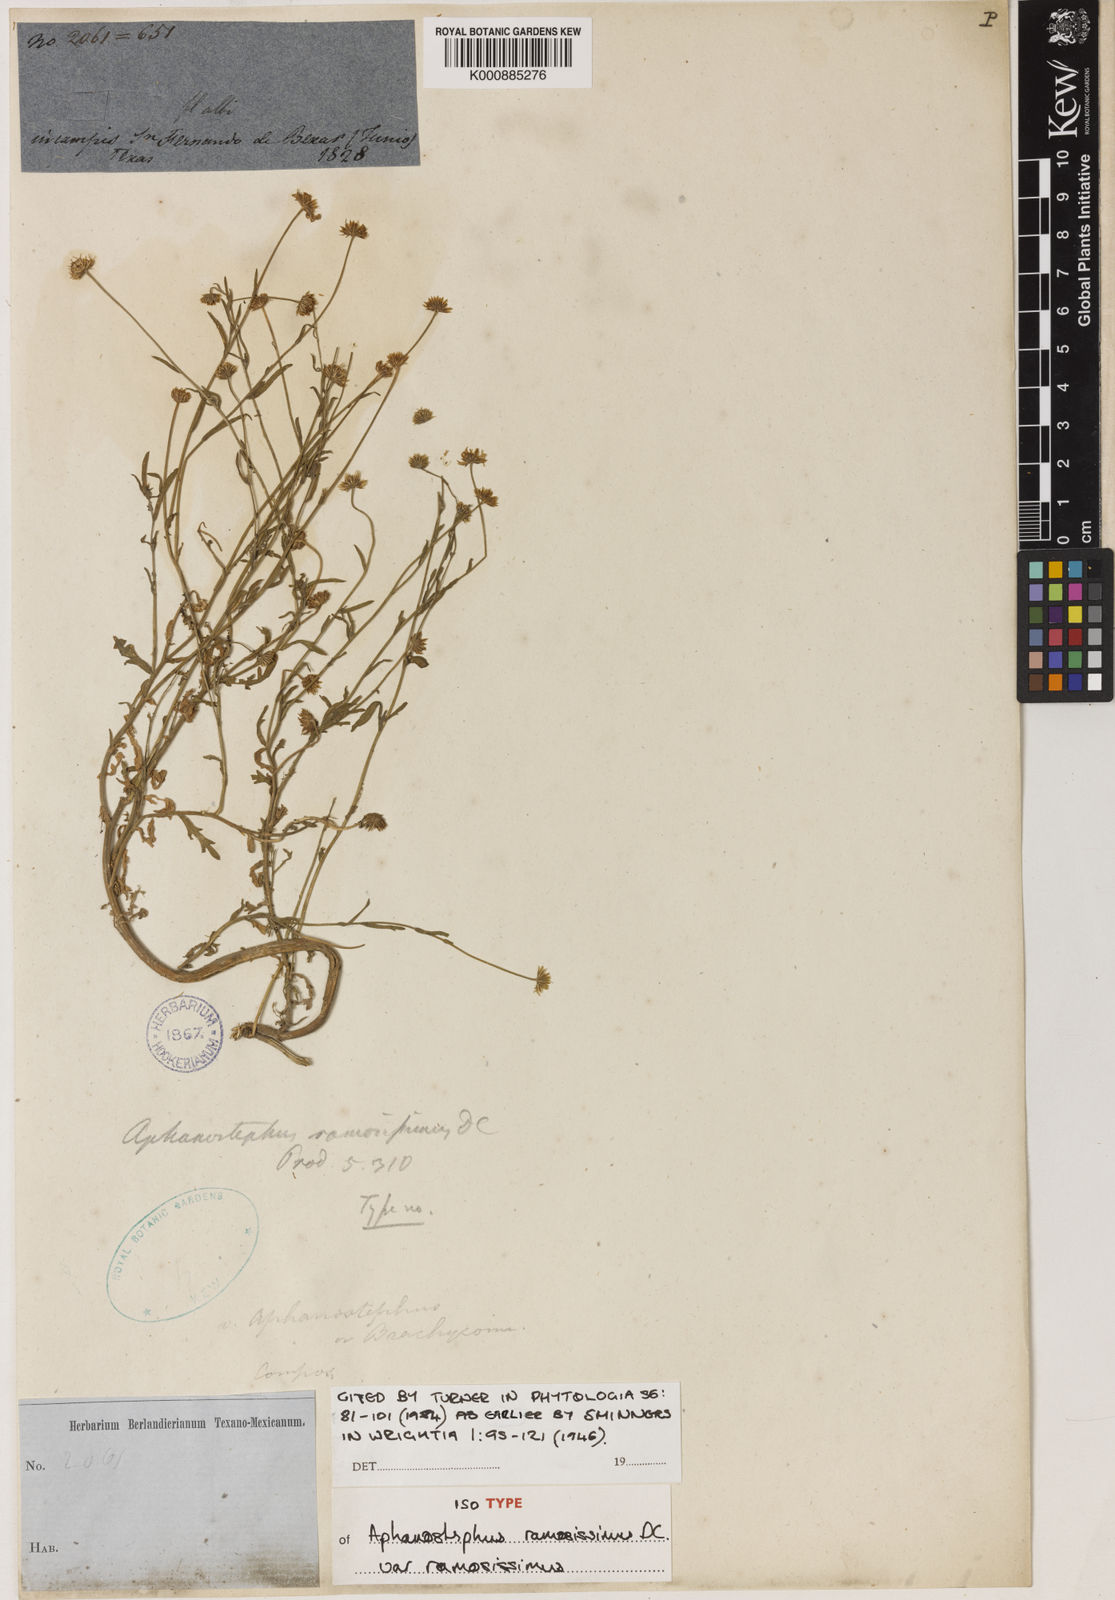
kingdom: Plantae
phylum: Tracheophyta
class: Magnoliopsida
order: Asterales
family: Asteraceae
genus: Aphanostephus
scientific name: Aphanostephus ramosissimus
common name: Plains lazy daisy
